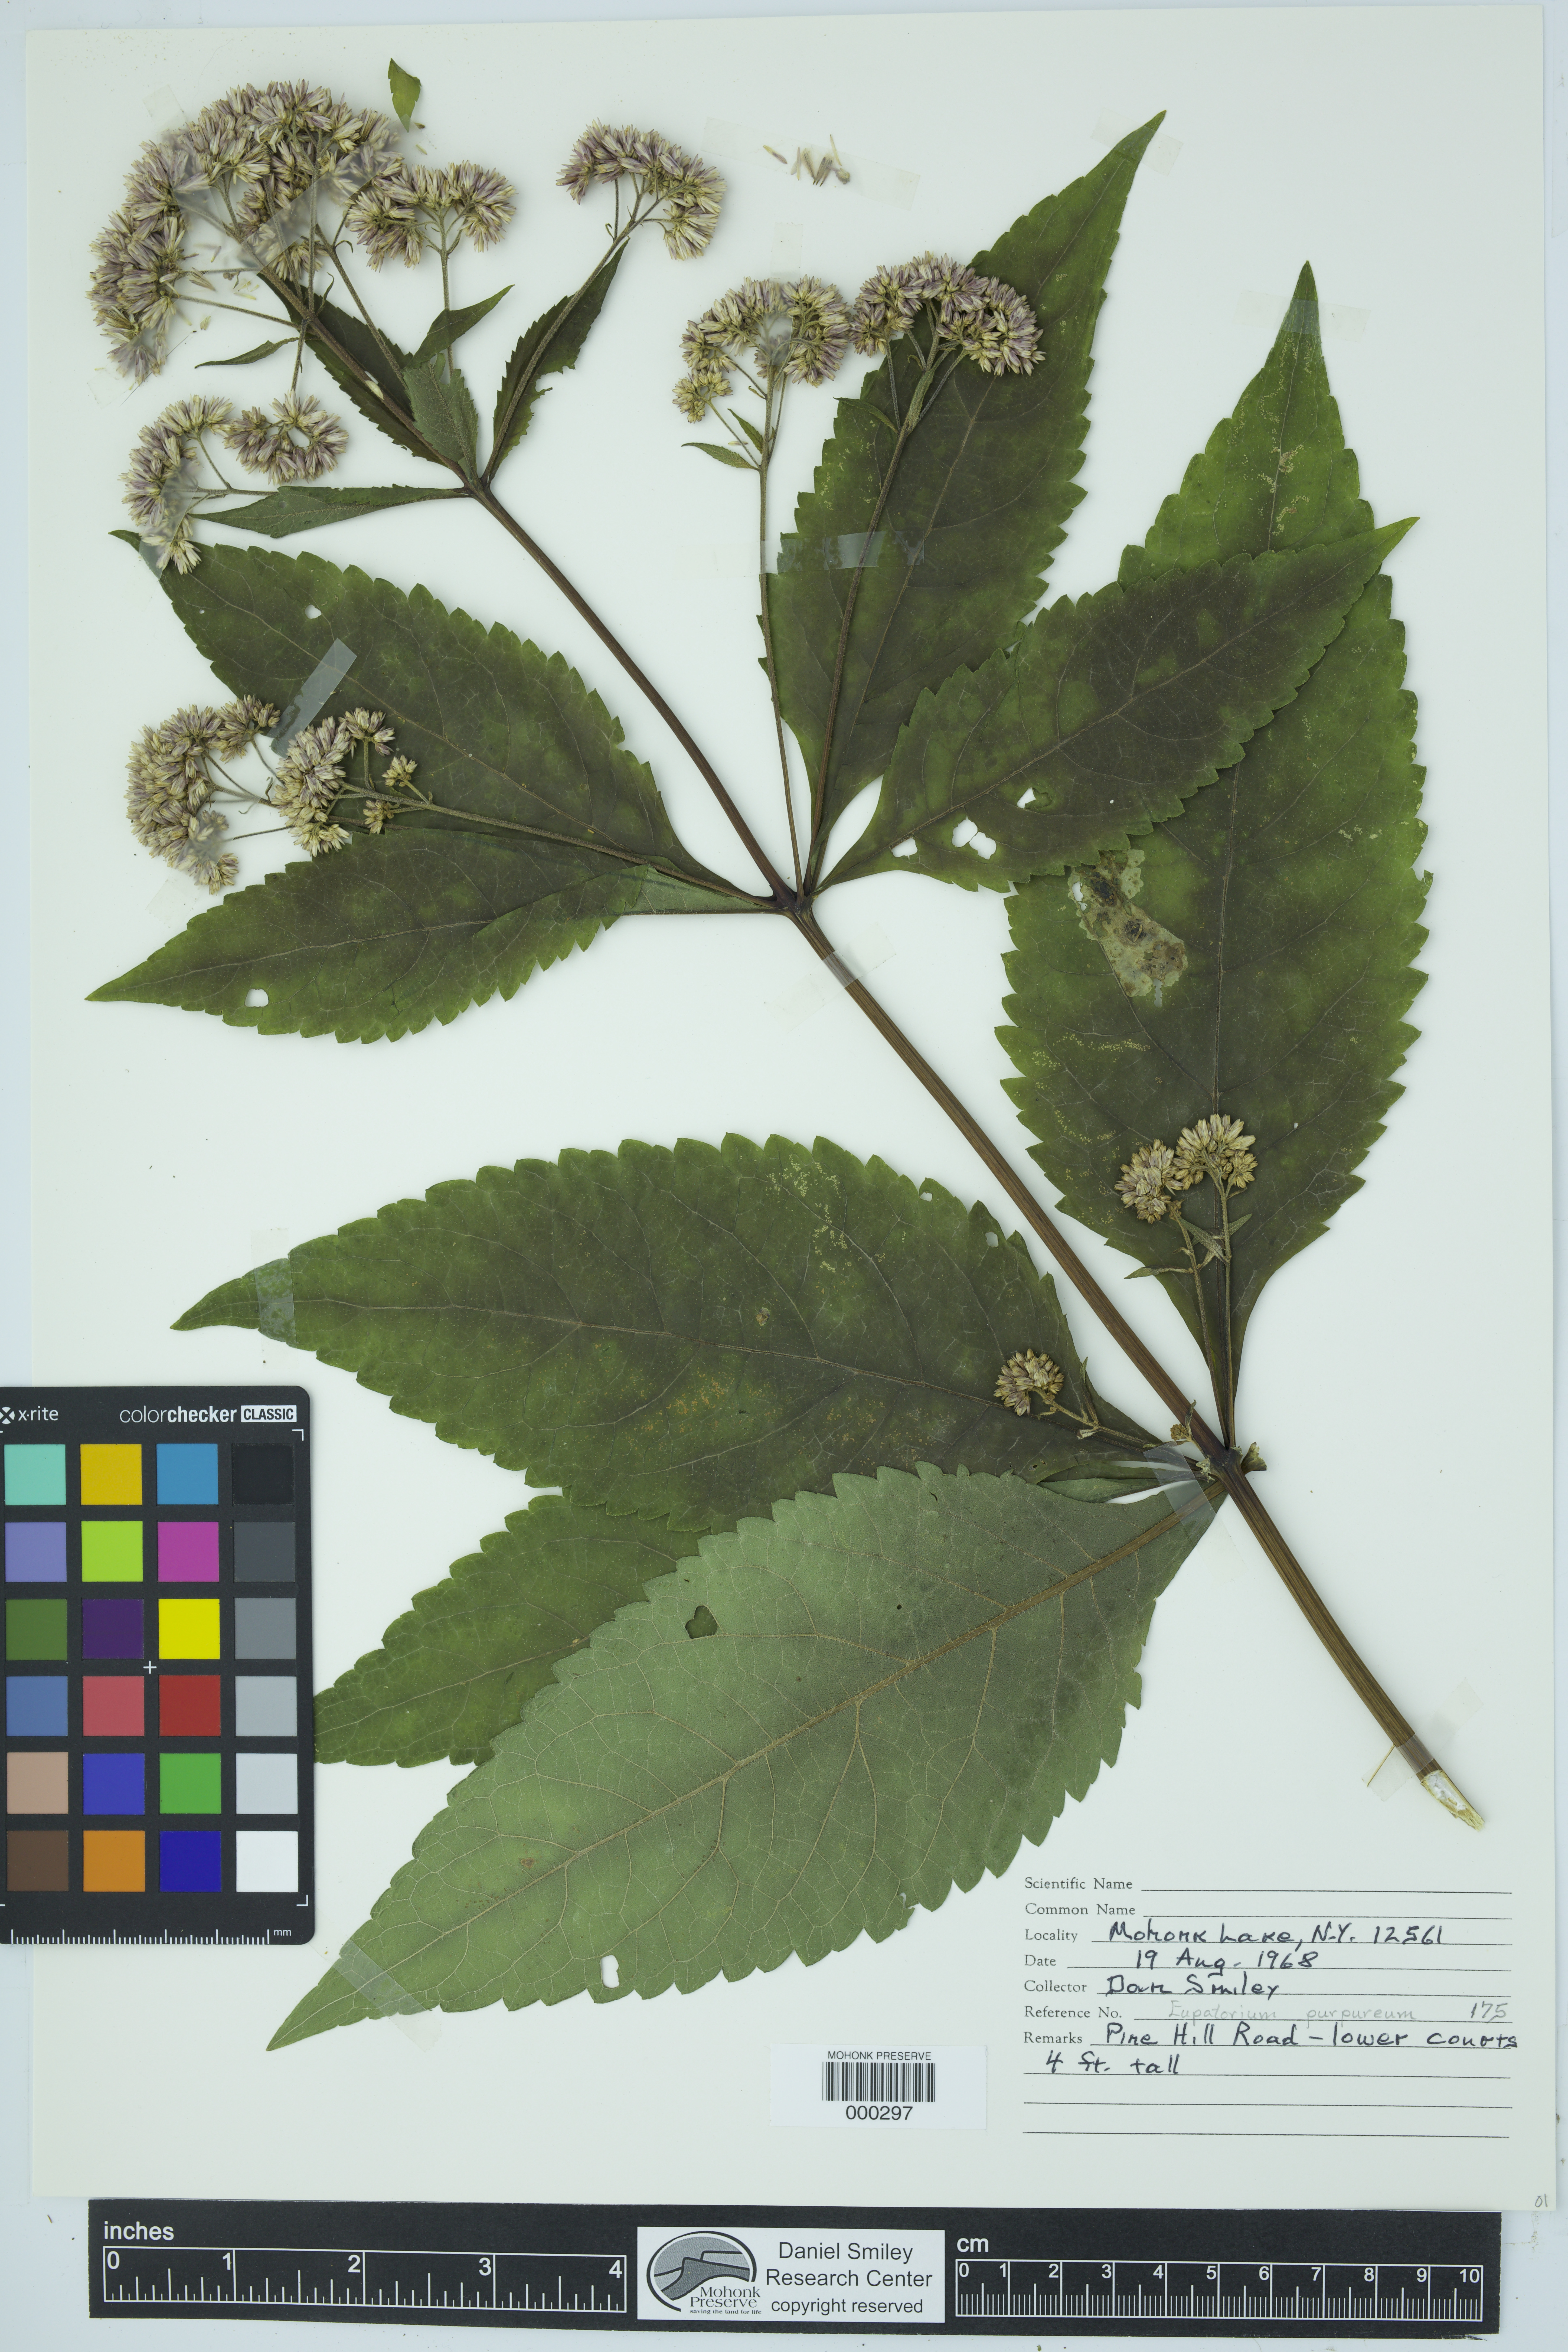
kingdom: Plantae
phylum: Tracheophyta
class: Magnoliopsida
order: Asterales
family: Asteraceae
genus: Eutrochium
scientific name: Eutrochium purpureum
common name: Gravelroot
